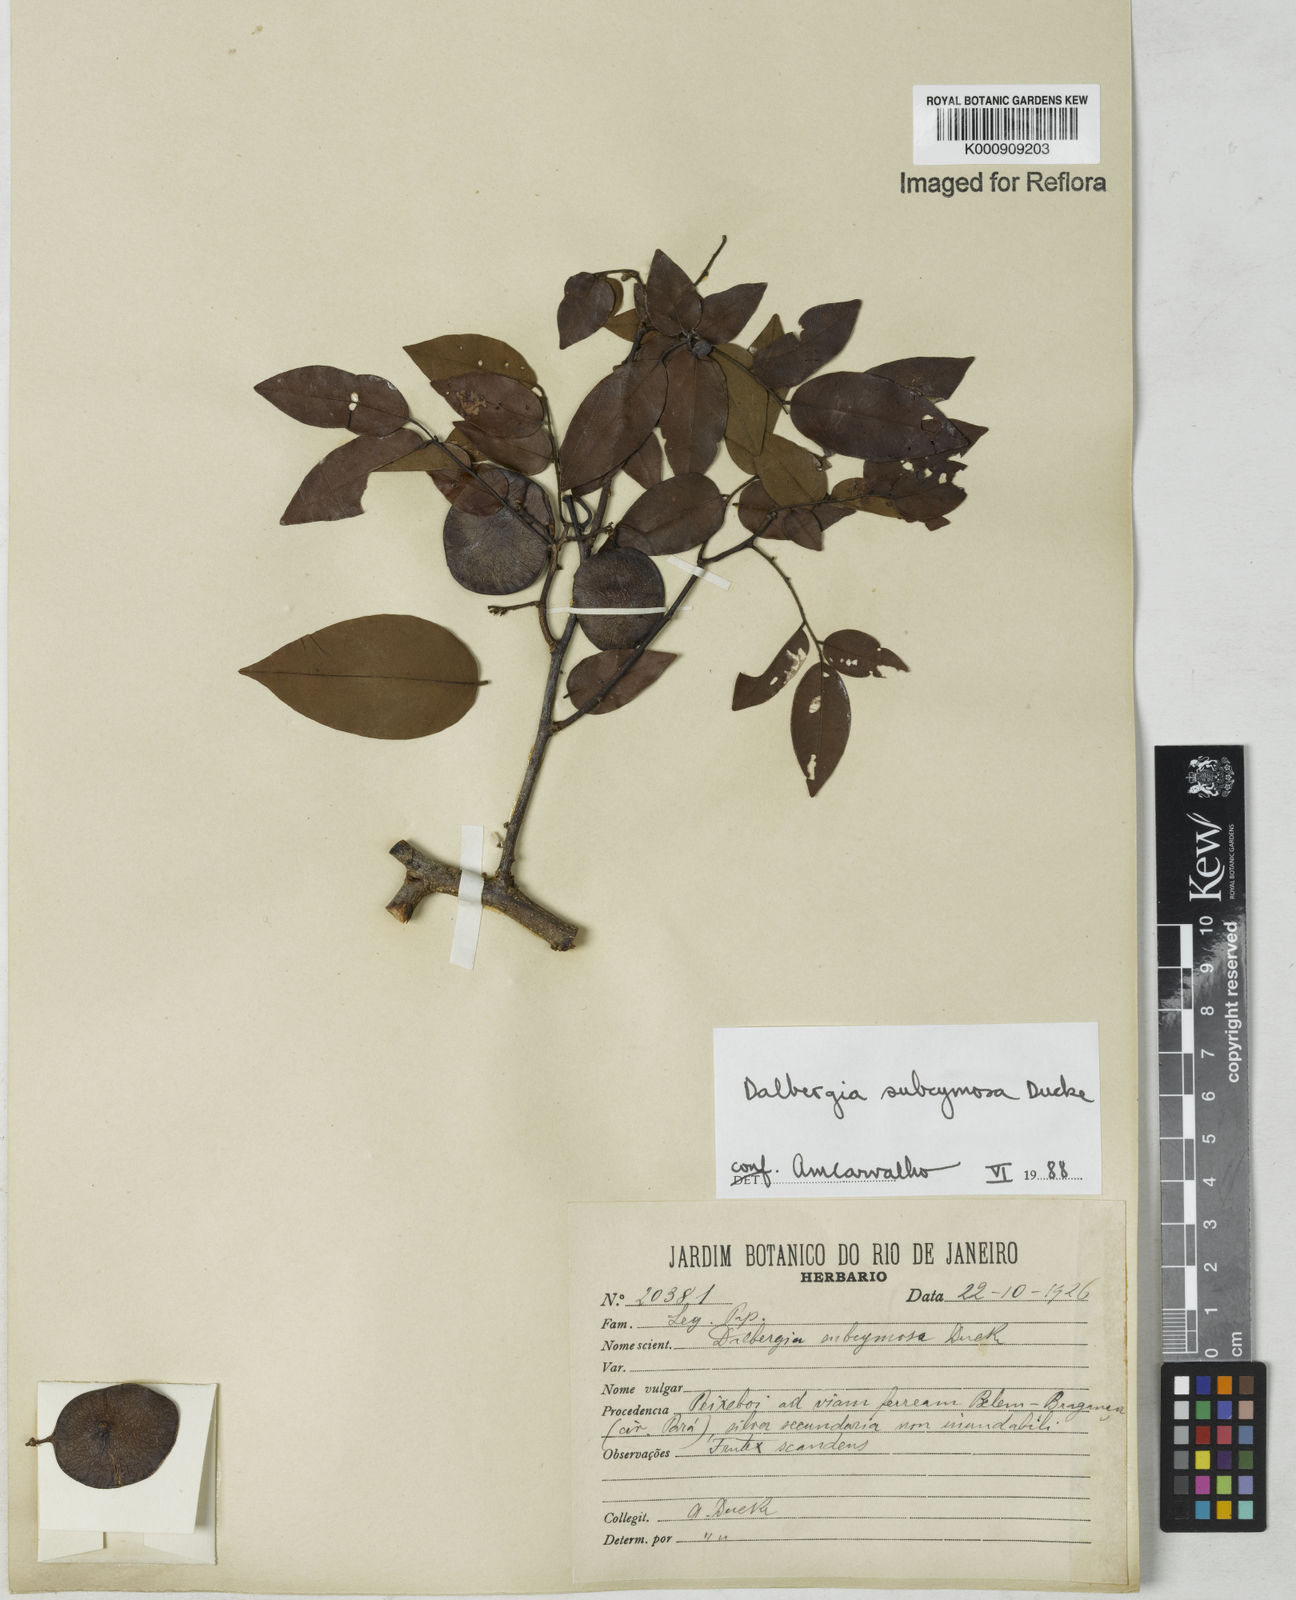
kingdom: Plantae
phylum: Tracheophyta
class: Magnoliopsida
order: Fabales
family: Fabaceae
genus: Dalbergia
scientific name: Dalbergia subcymosa
